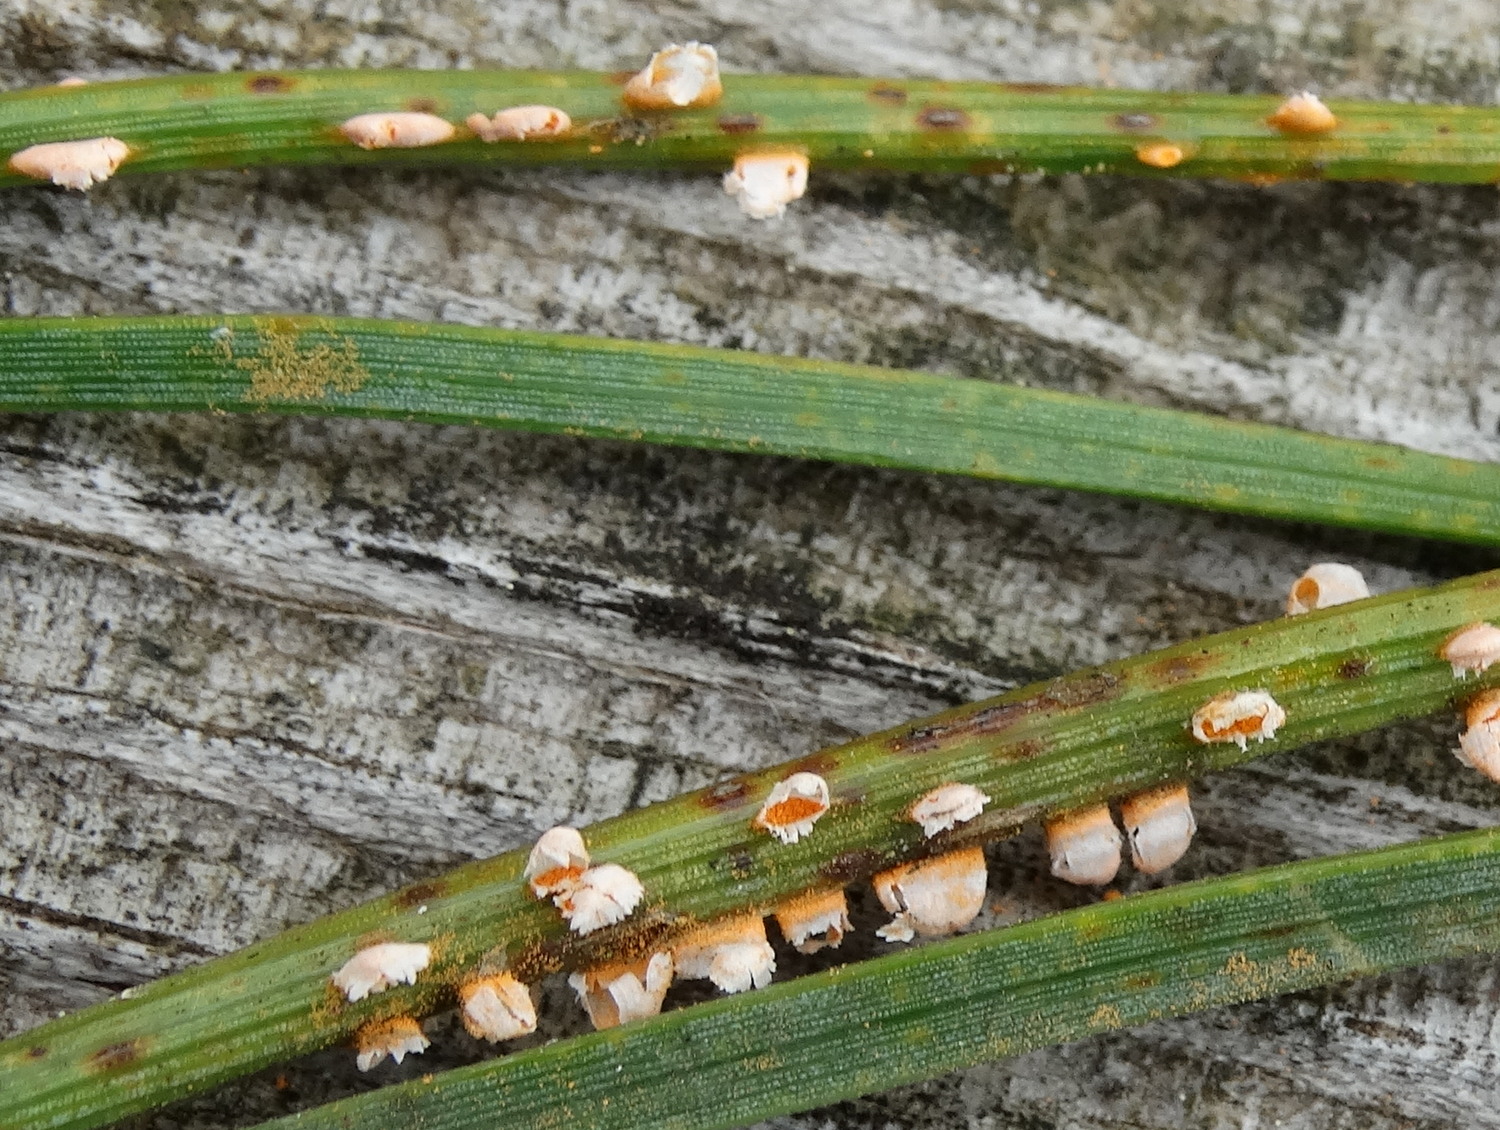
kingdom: Fungi
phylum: Basidiomycota
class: Pucciniomycetes
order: Pucciniales
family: Coleosporiaceae
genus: Coleosporium
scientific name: Coleosporium tussilaginis
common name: almindelig fyrrenålerust
